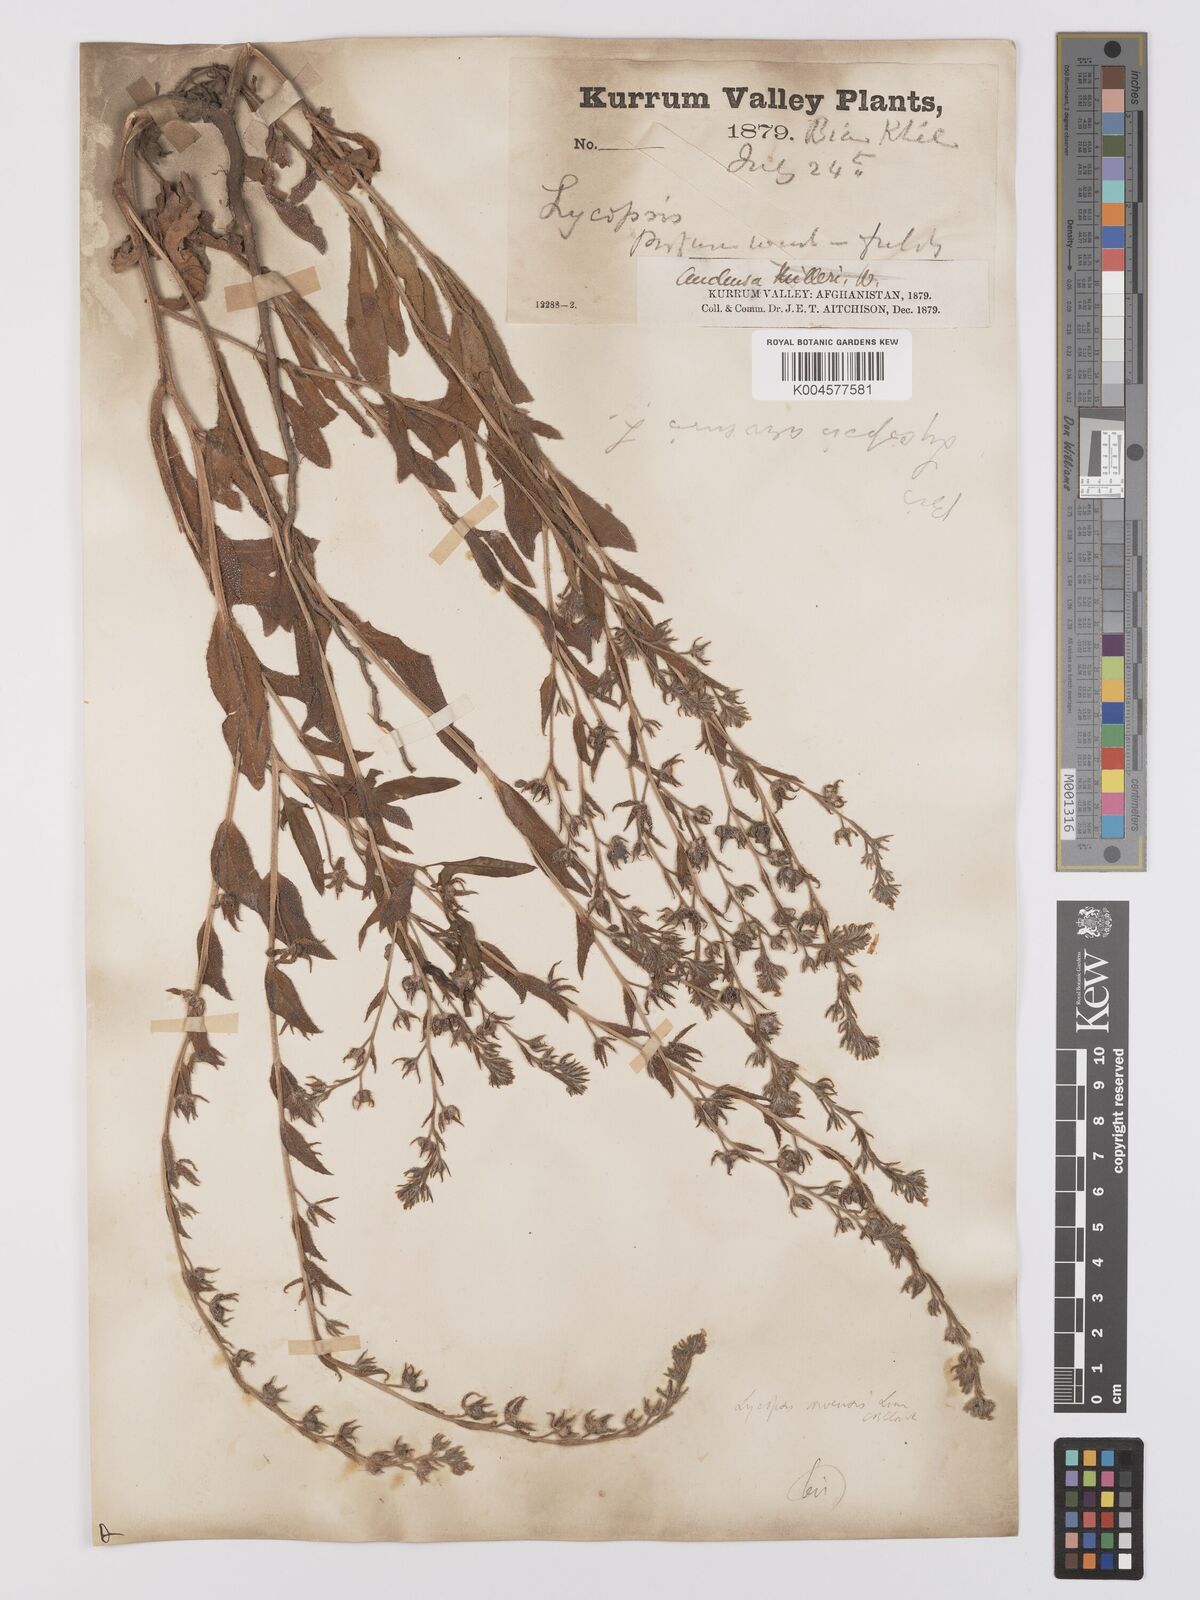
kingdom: Plantae
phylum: Tracheophyta
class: Magnoliopsida
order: Boraginales
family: Boraginaceae
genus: Lycopsis
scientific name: Lycopsis arvensis
